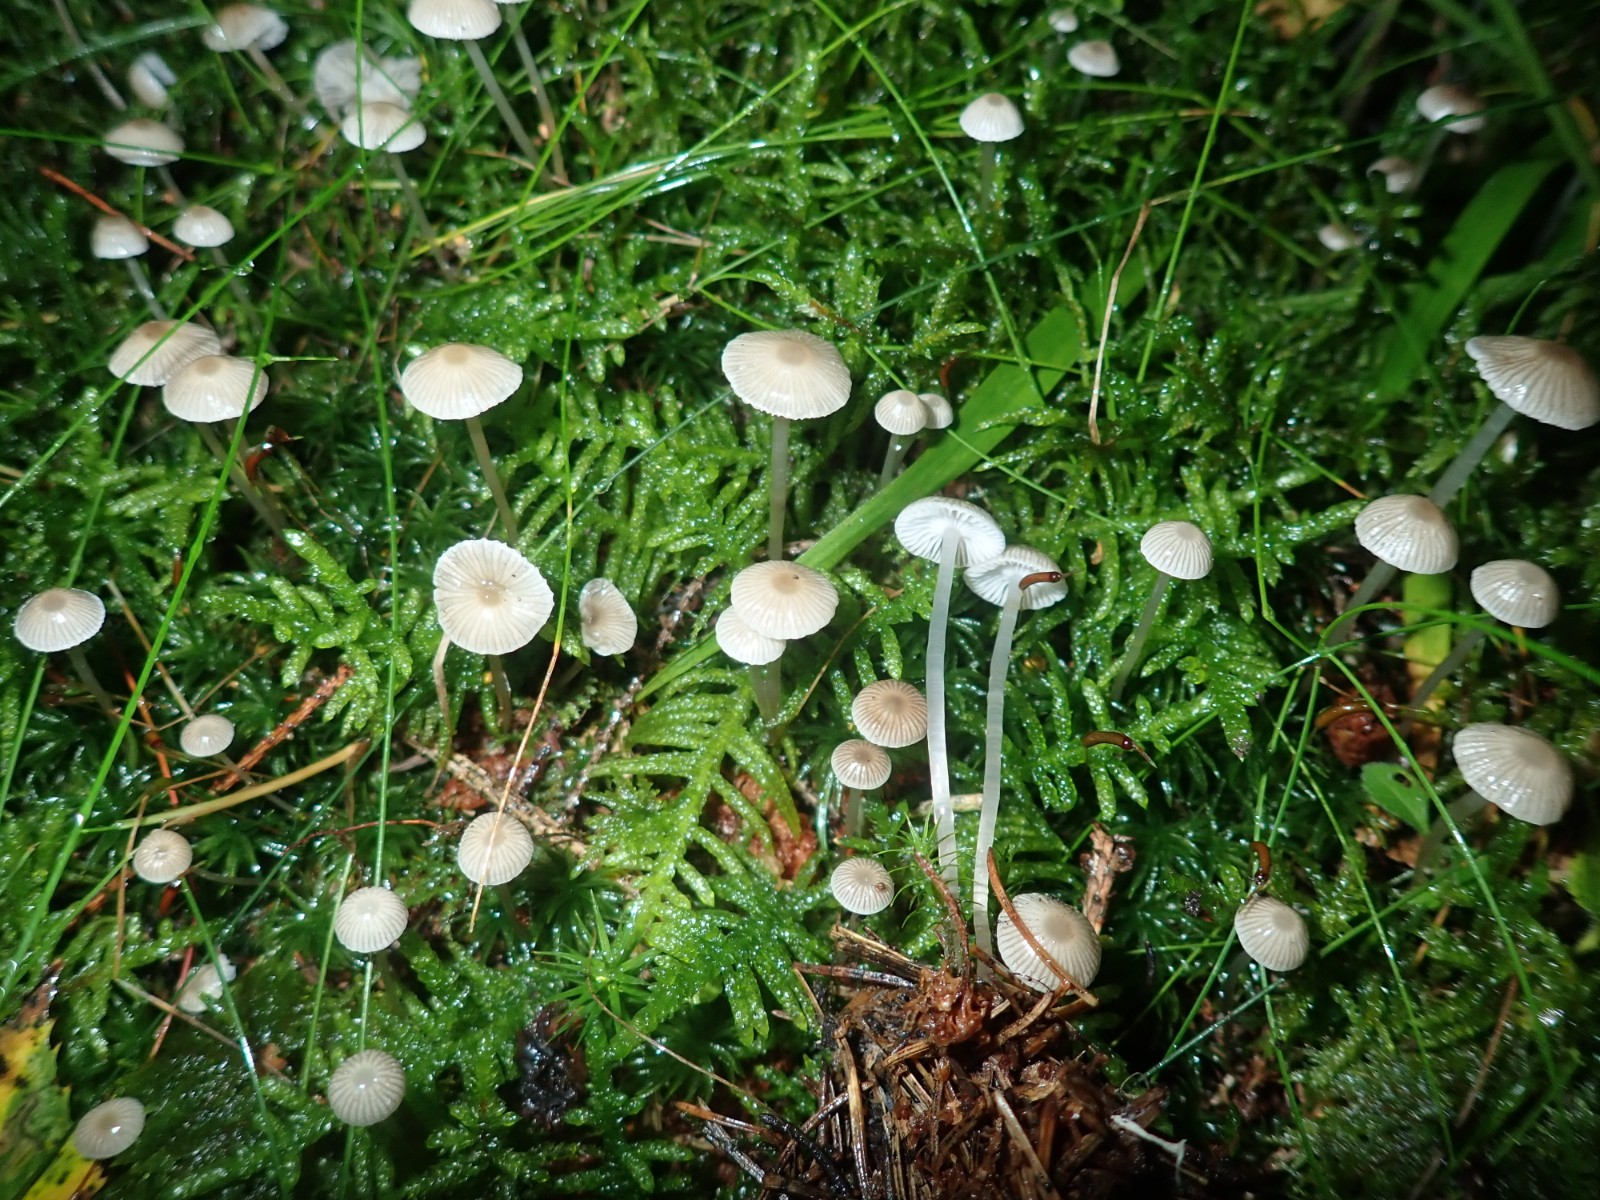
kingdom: Fungi
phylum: Basidiomycota
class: Agaricomycetes
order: Agaricales
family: Mycenaceae
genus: Mycena
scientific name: Mycena vulgaris
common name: klæbrig huesvamp
